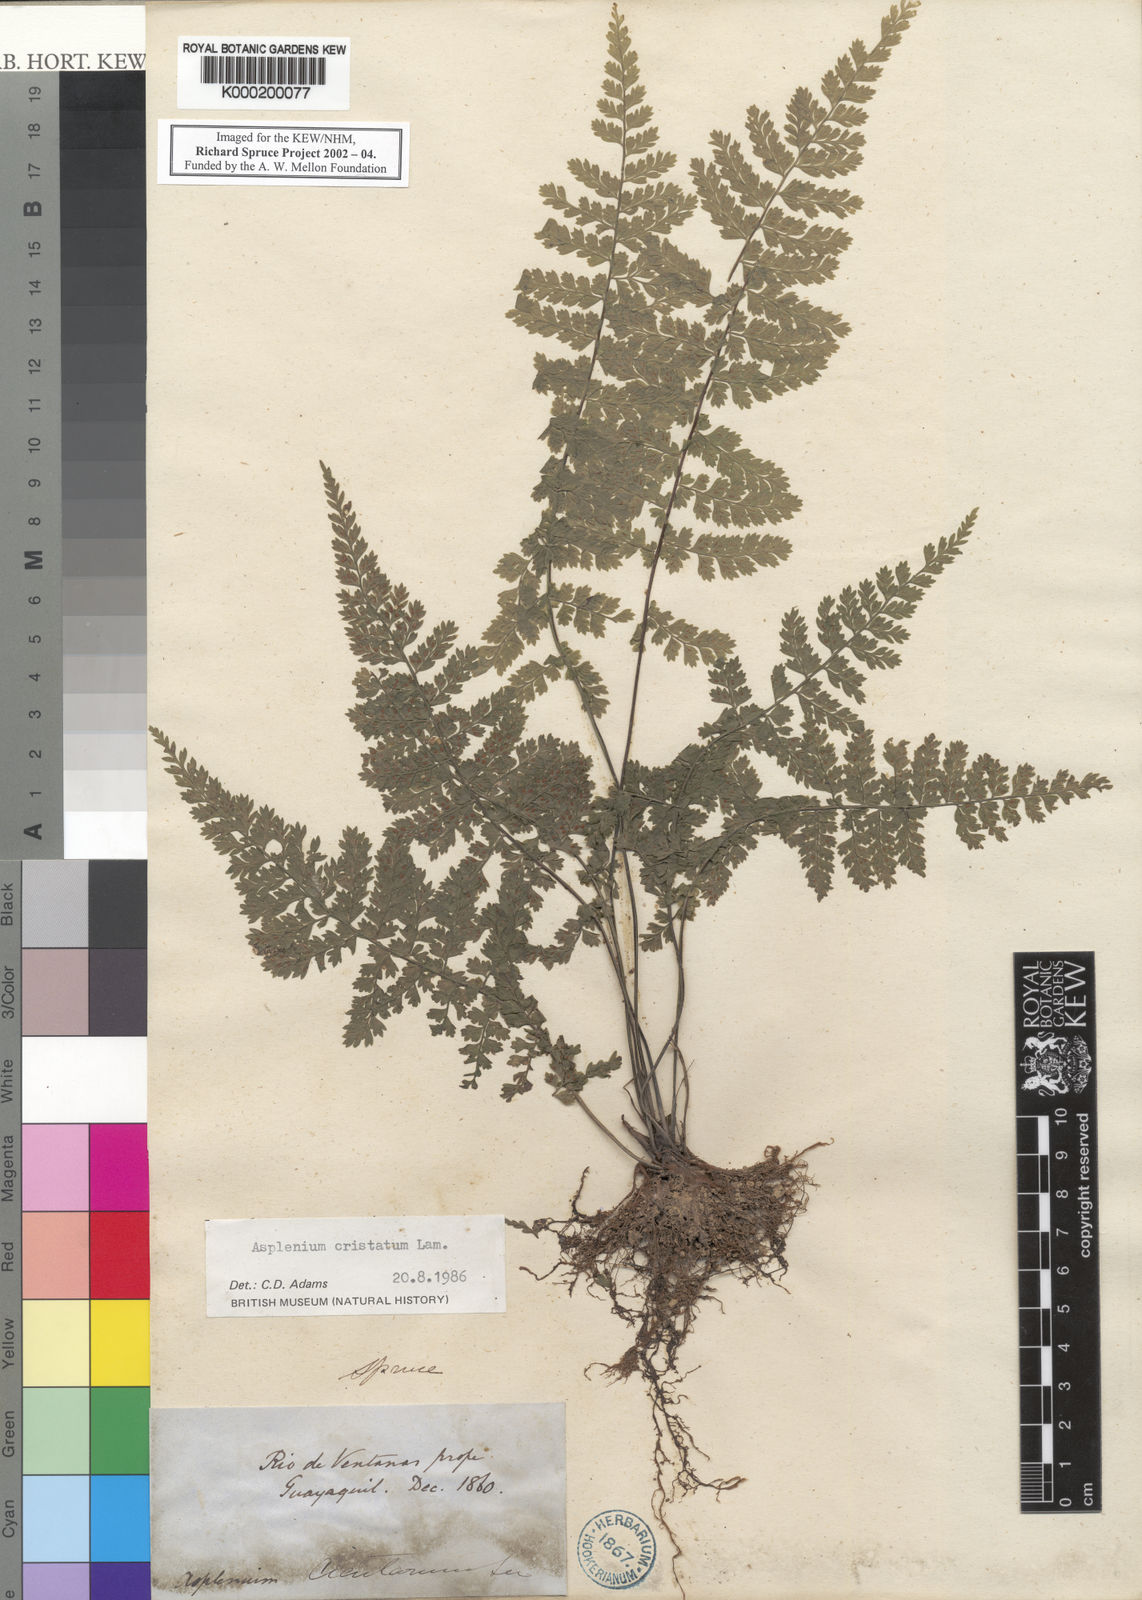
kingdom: Plantae
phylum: Tracheophyta
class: Polypodiopsida
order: Polypodiales
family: Aspleniaceae
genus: Asplenium
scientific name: Asplenium cristatum
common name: Parsley spleenwort
